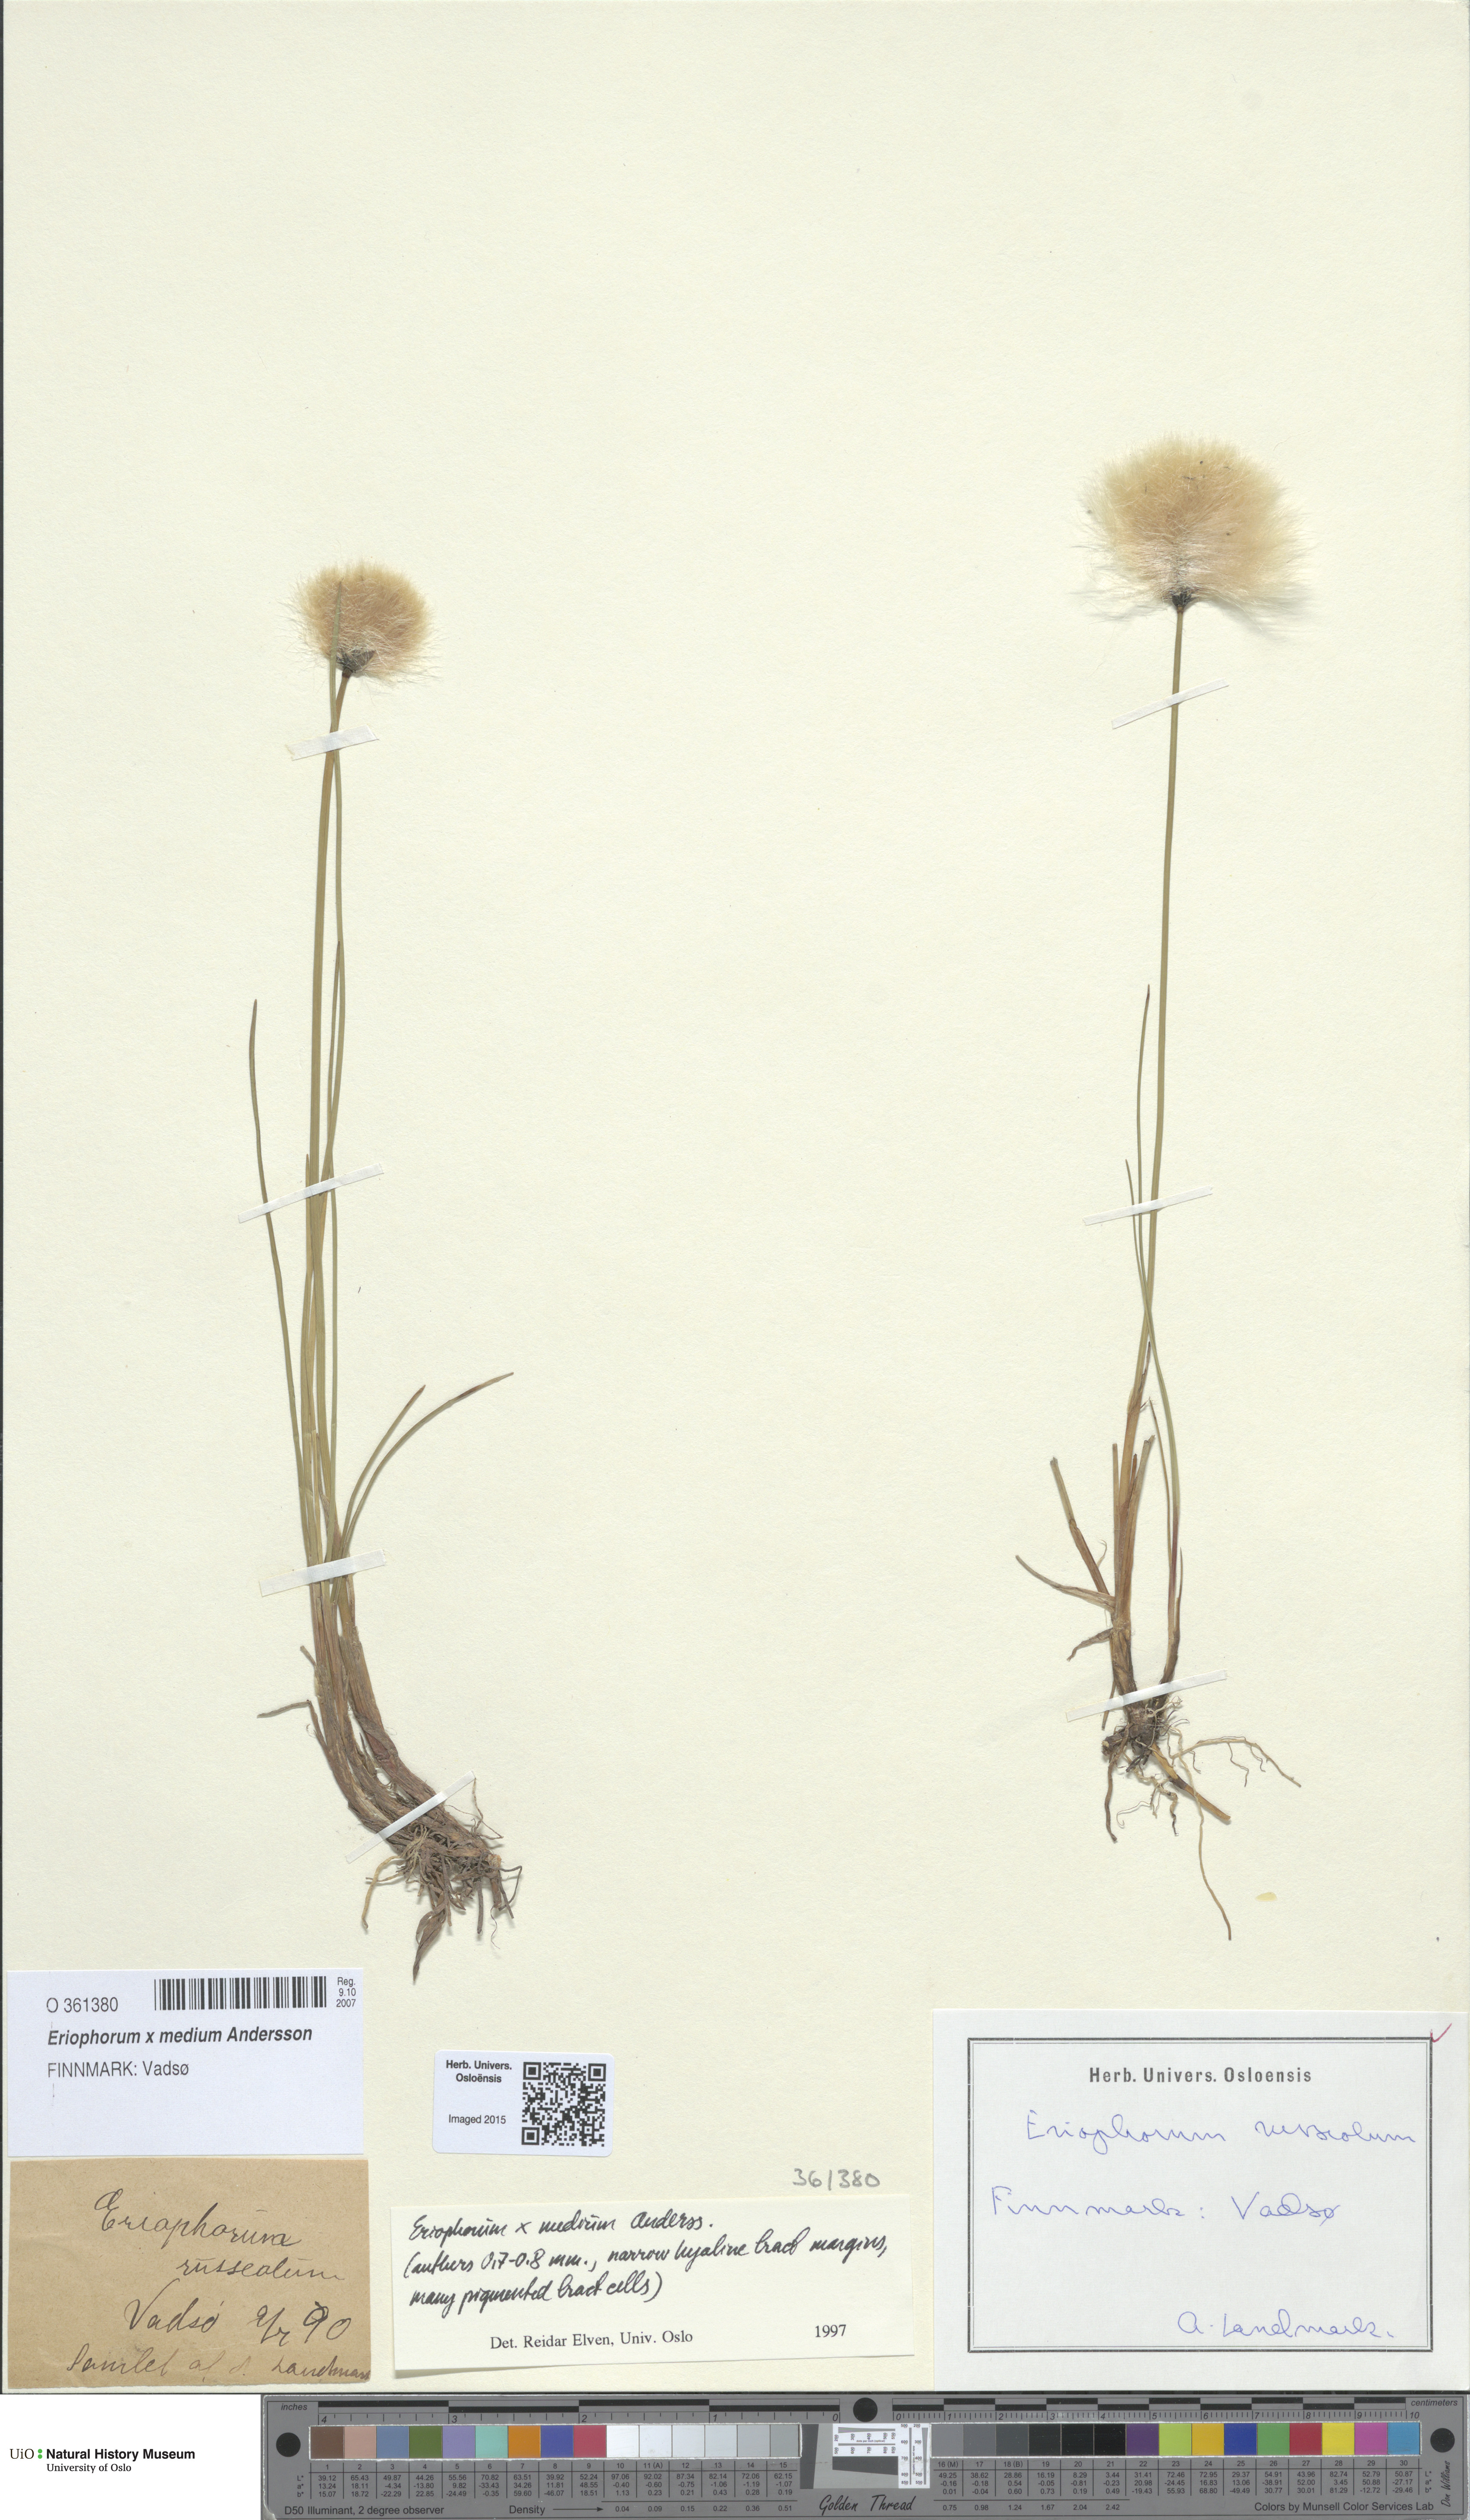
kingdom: Plantae
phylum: Tracheophyta
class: Liliopsida
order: Poales
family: Cyperaceae
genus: Eriophorum
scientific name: Eriophorum medium
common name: Intermediate cottongrass
